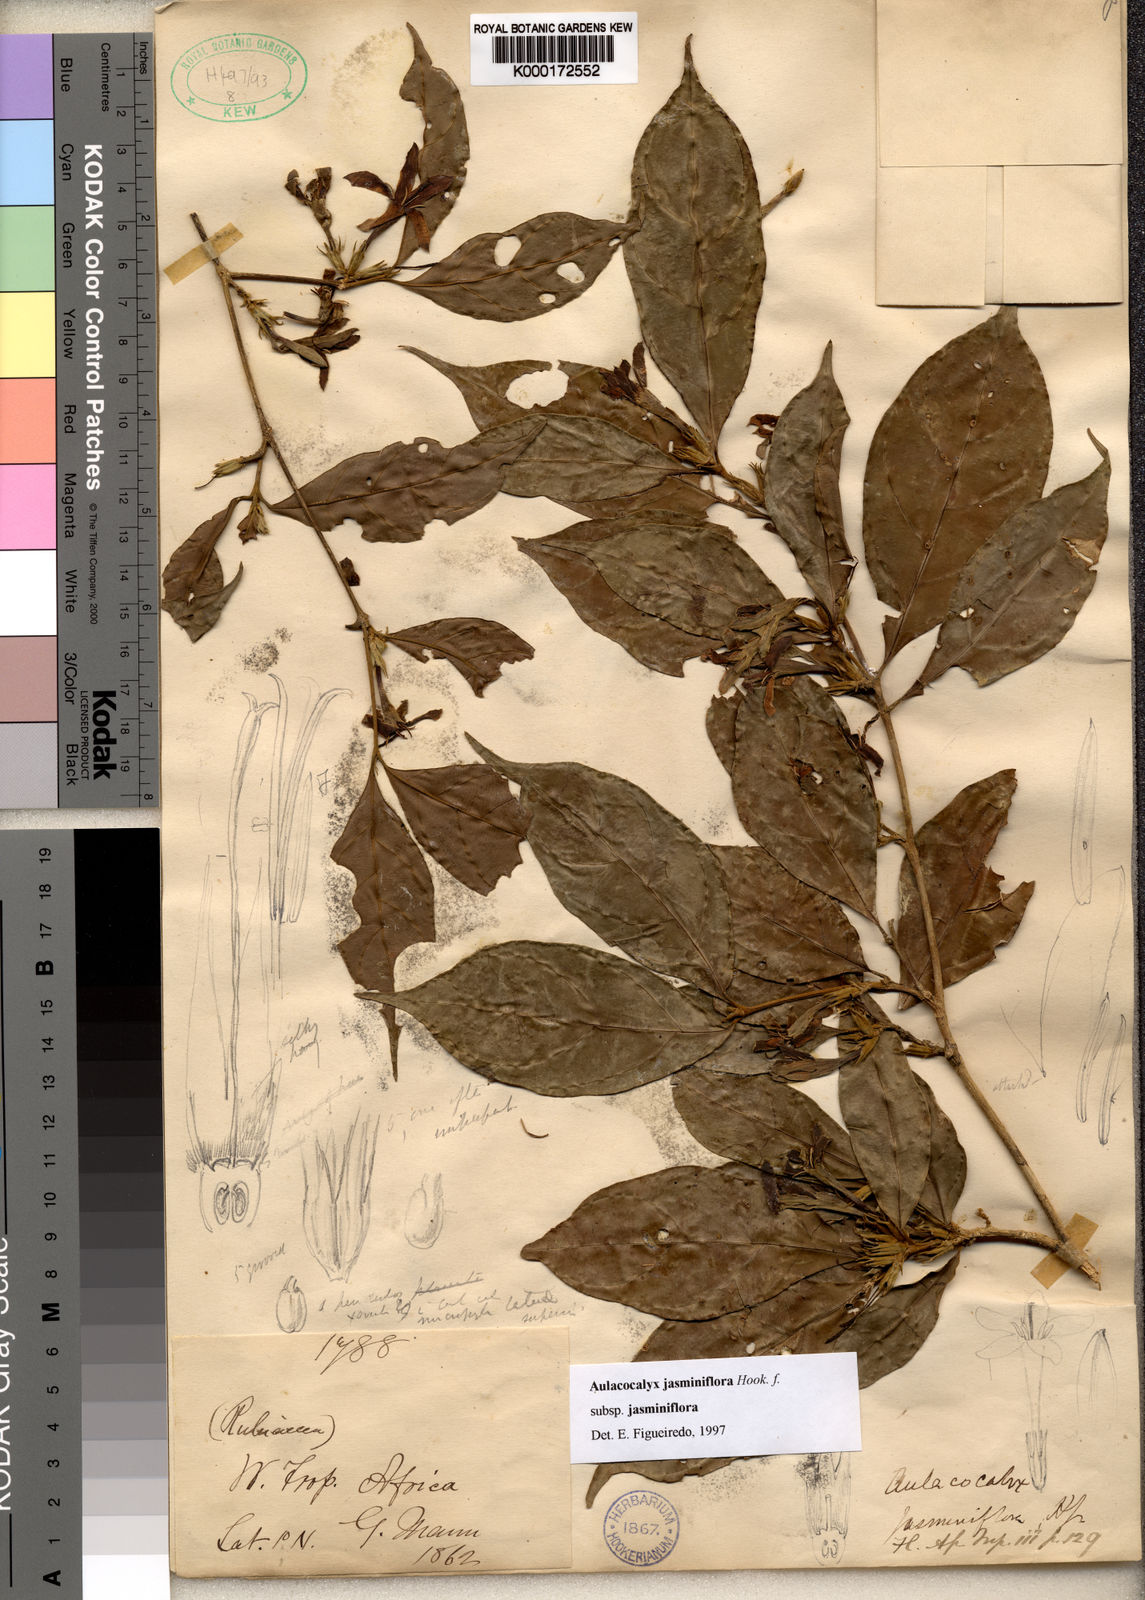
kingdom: Plantae
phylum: Tracheophyta
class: Magnoliopsida
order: Gentianales
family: Rubiaceae
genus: Aulacocalyx
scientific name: Aulacocalyx jasminiflora
